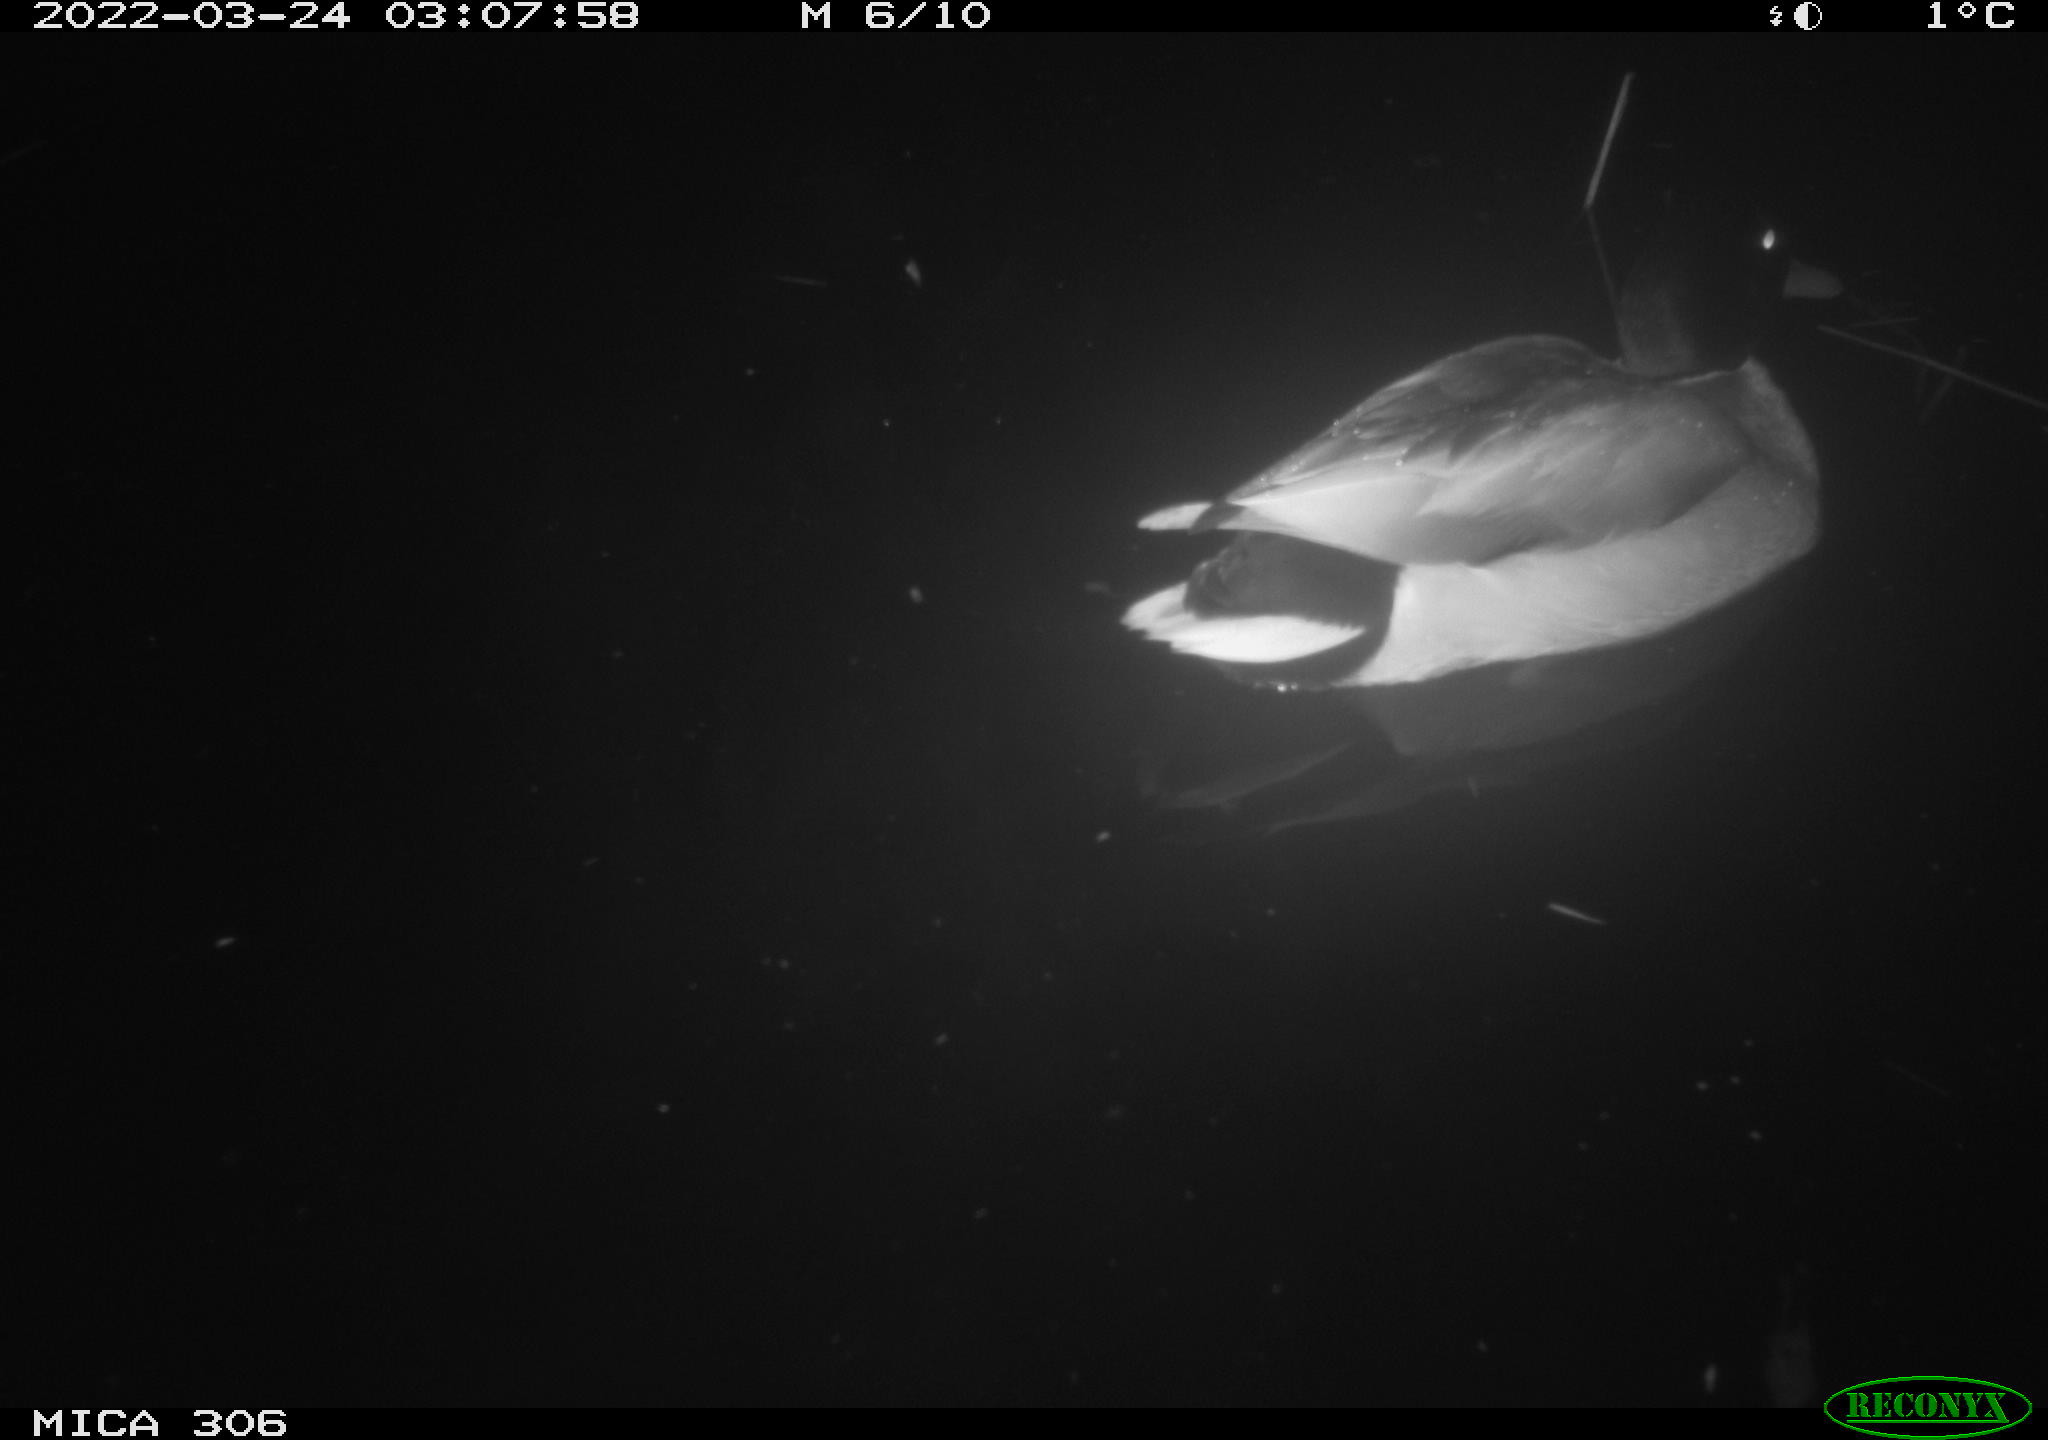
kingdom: Animalia
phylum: Chordata
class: Aves
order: Anseriformes
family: Anatidae
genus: Anas
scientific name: Anas
